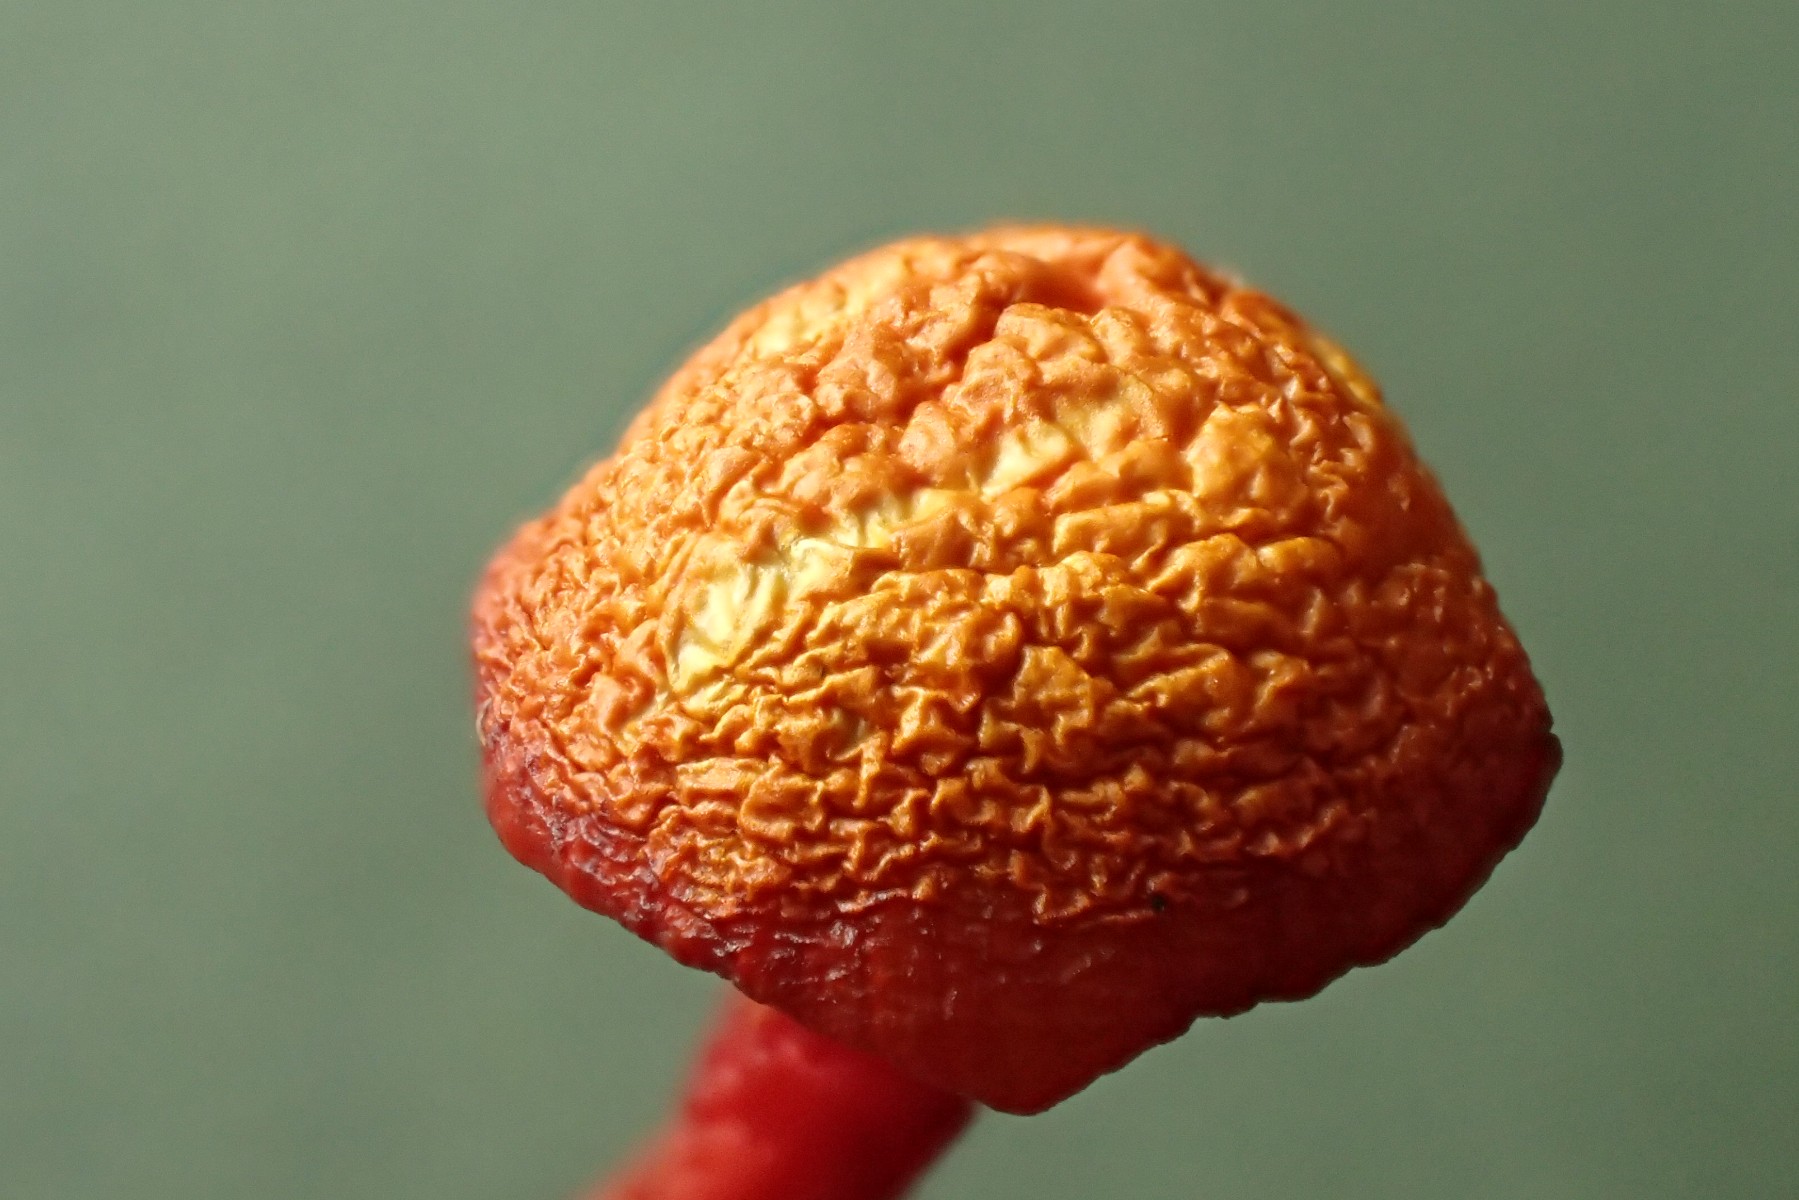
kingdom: Fungi
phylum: Basidiomycota
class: Agaricomycetes
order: Agaricales
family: Hygrophoraceae
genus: Hygrocybe
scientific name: Hygrocybe insipida
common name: liden vokshat
